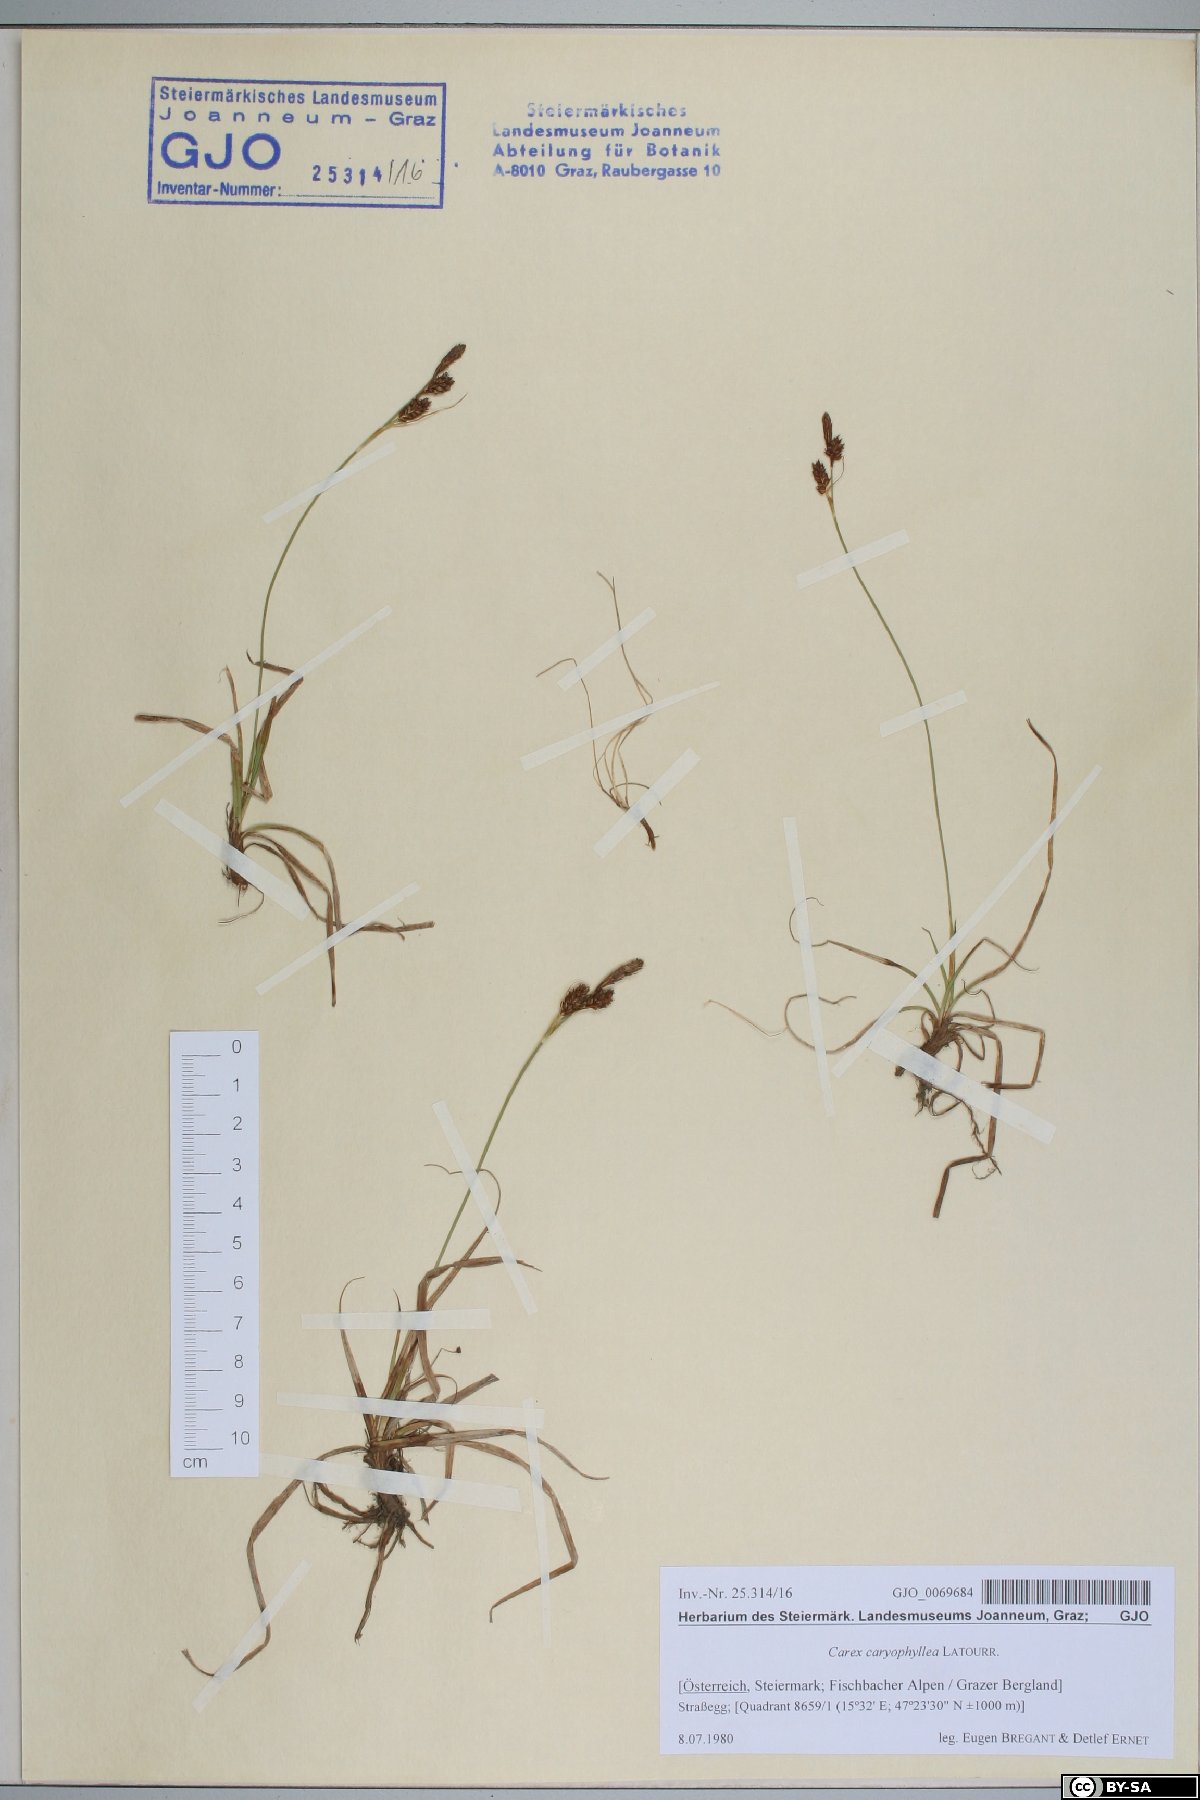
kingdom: Plantae
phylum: Tracheophyta
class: Liliopsida
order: Poales
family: Cyperaceae
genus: Carex
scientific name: Carex caryophyllea
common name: Spring sedge
